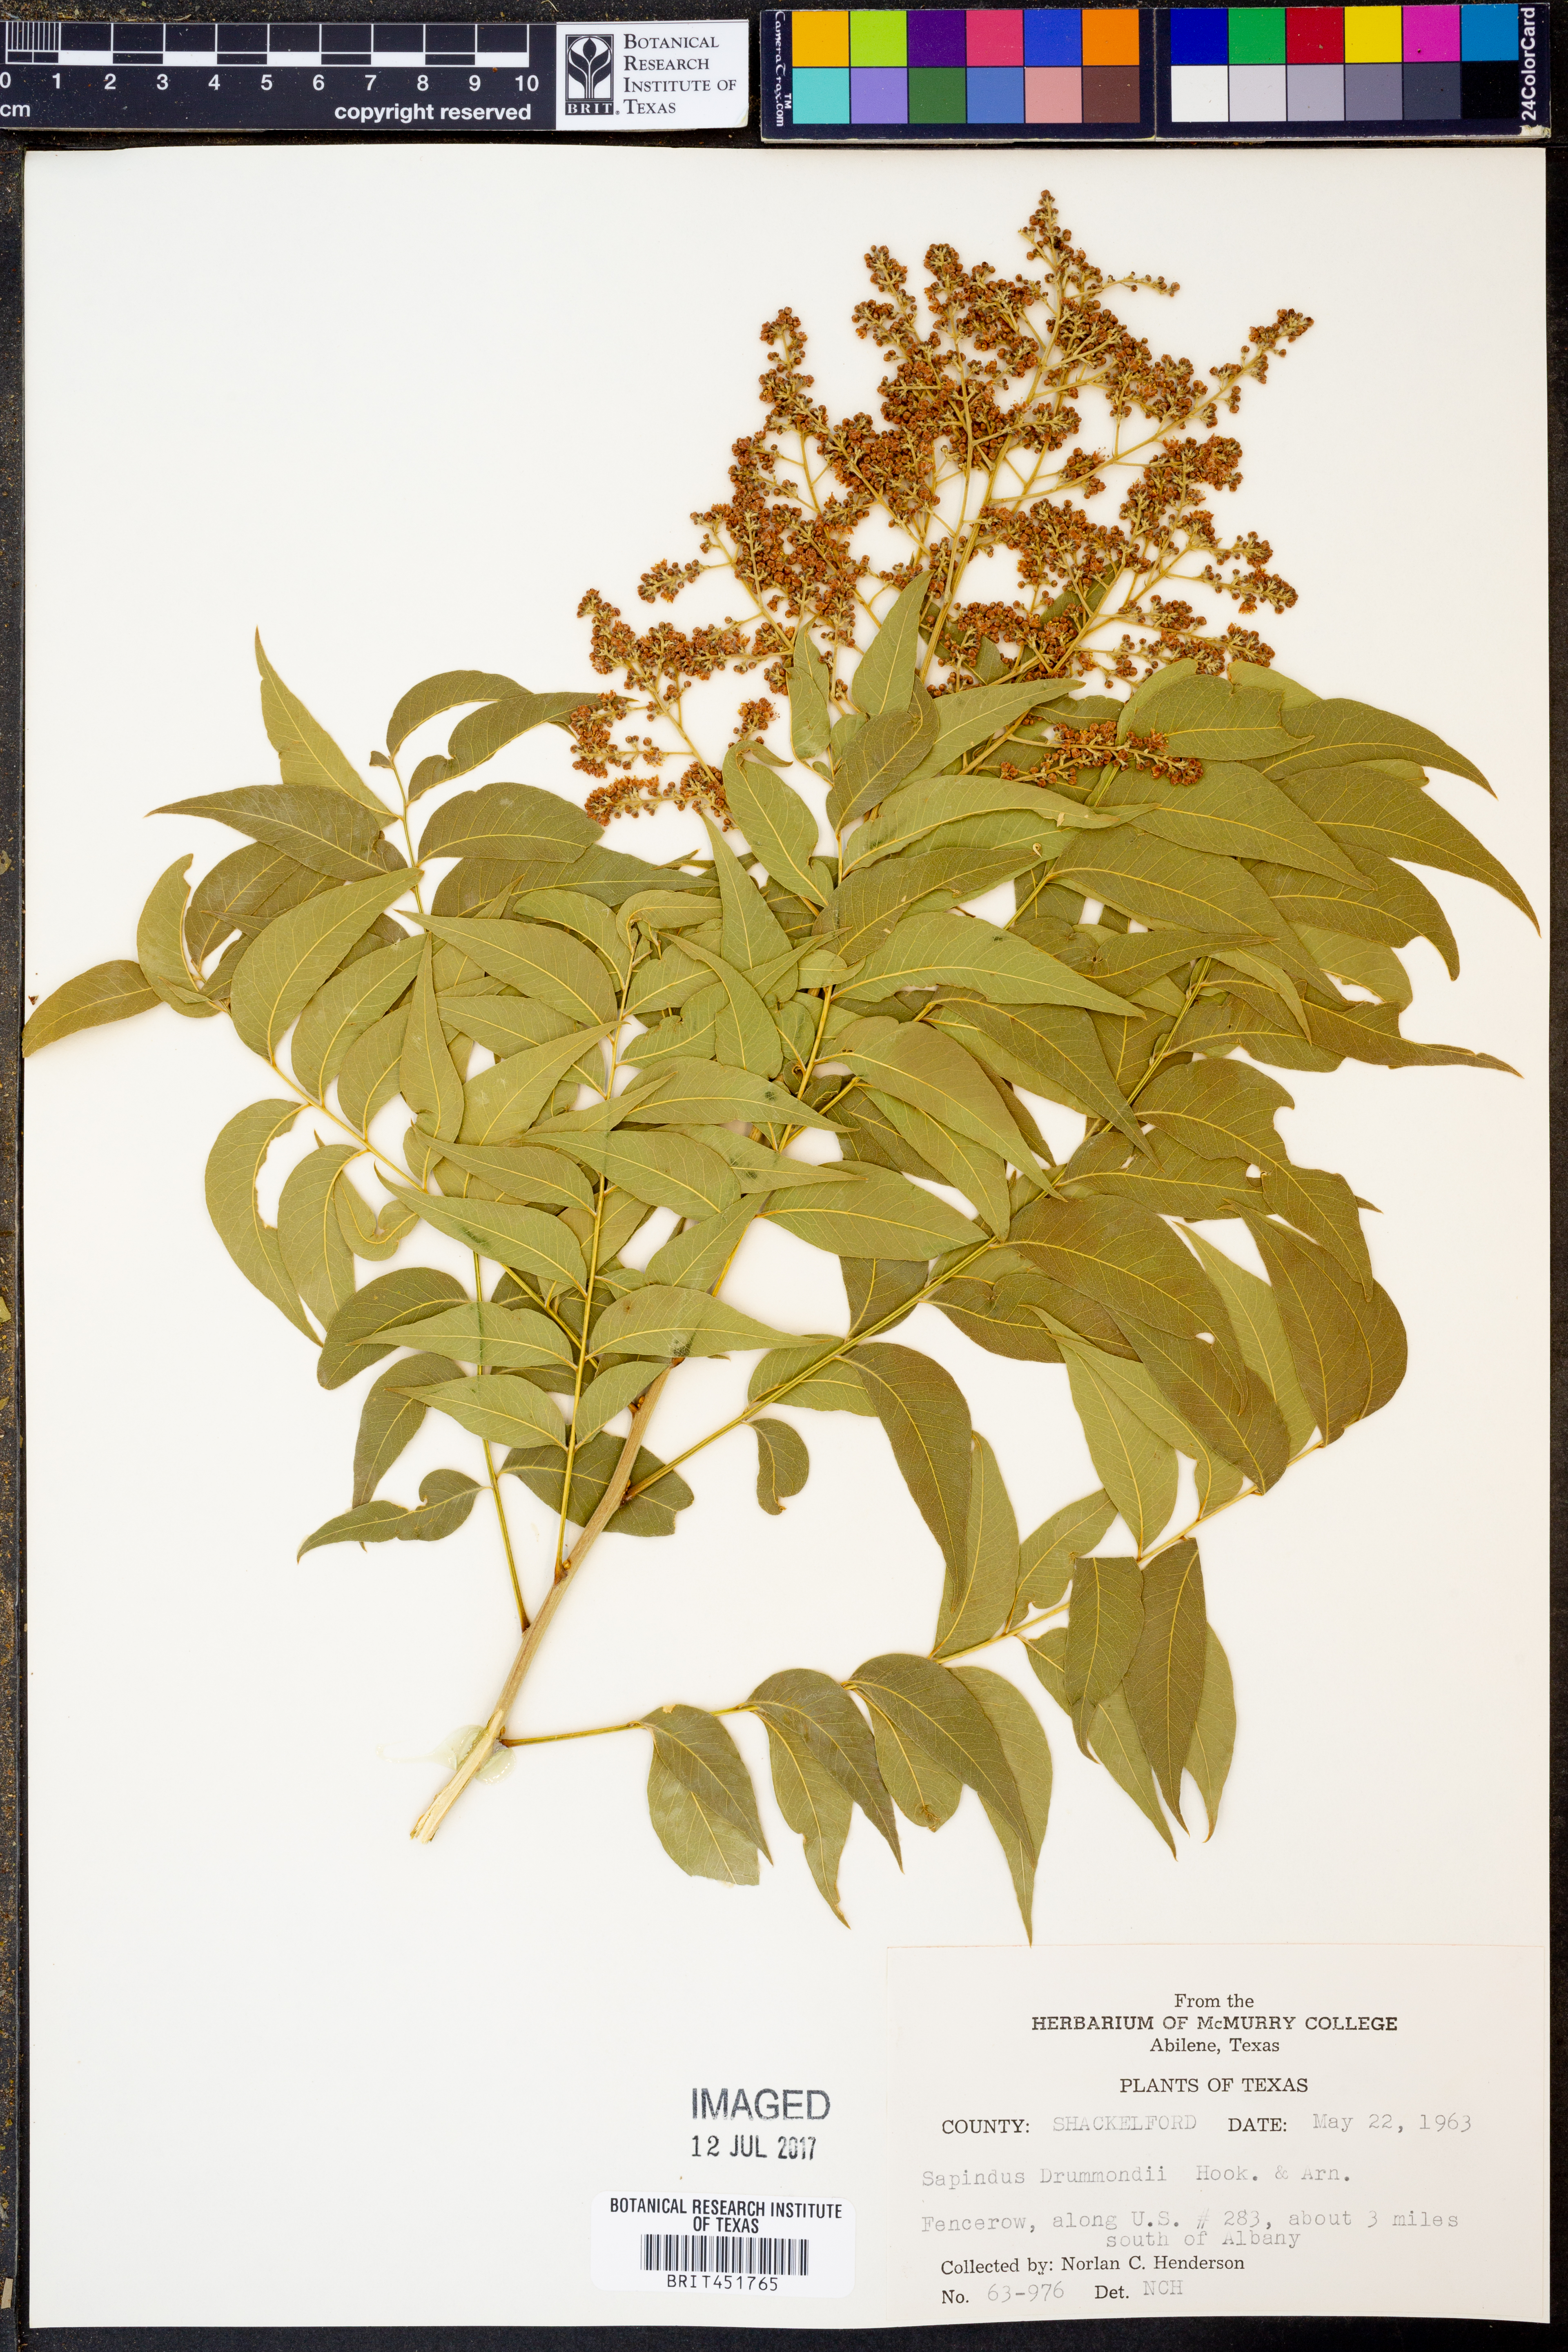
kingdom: Plantae
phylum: Tracheophyta
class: Magnoliopsida
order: Sapindales
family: Sapindaceae
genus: Sapindus
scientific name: Sapindus drummondii
